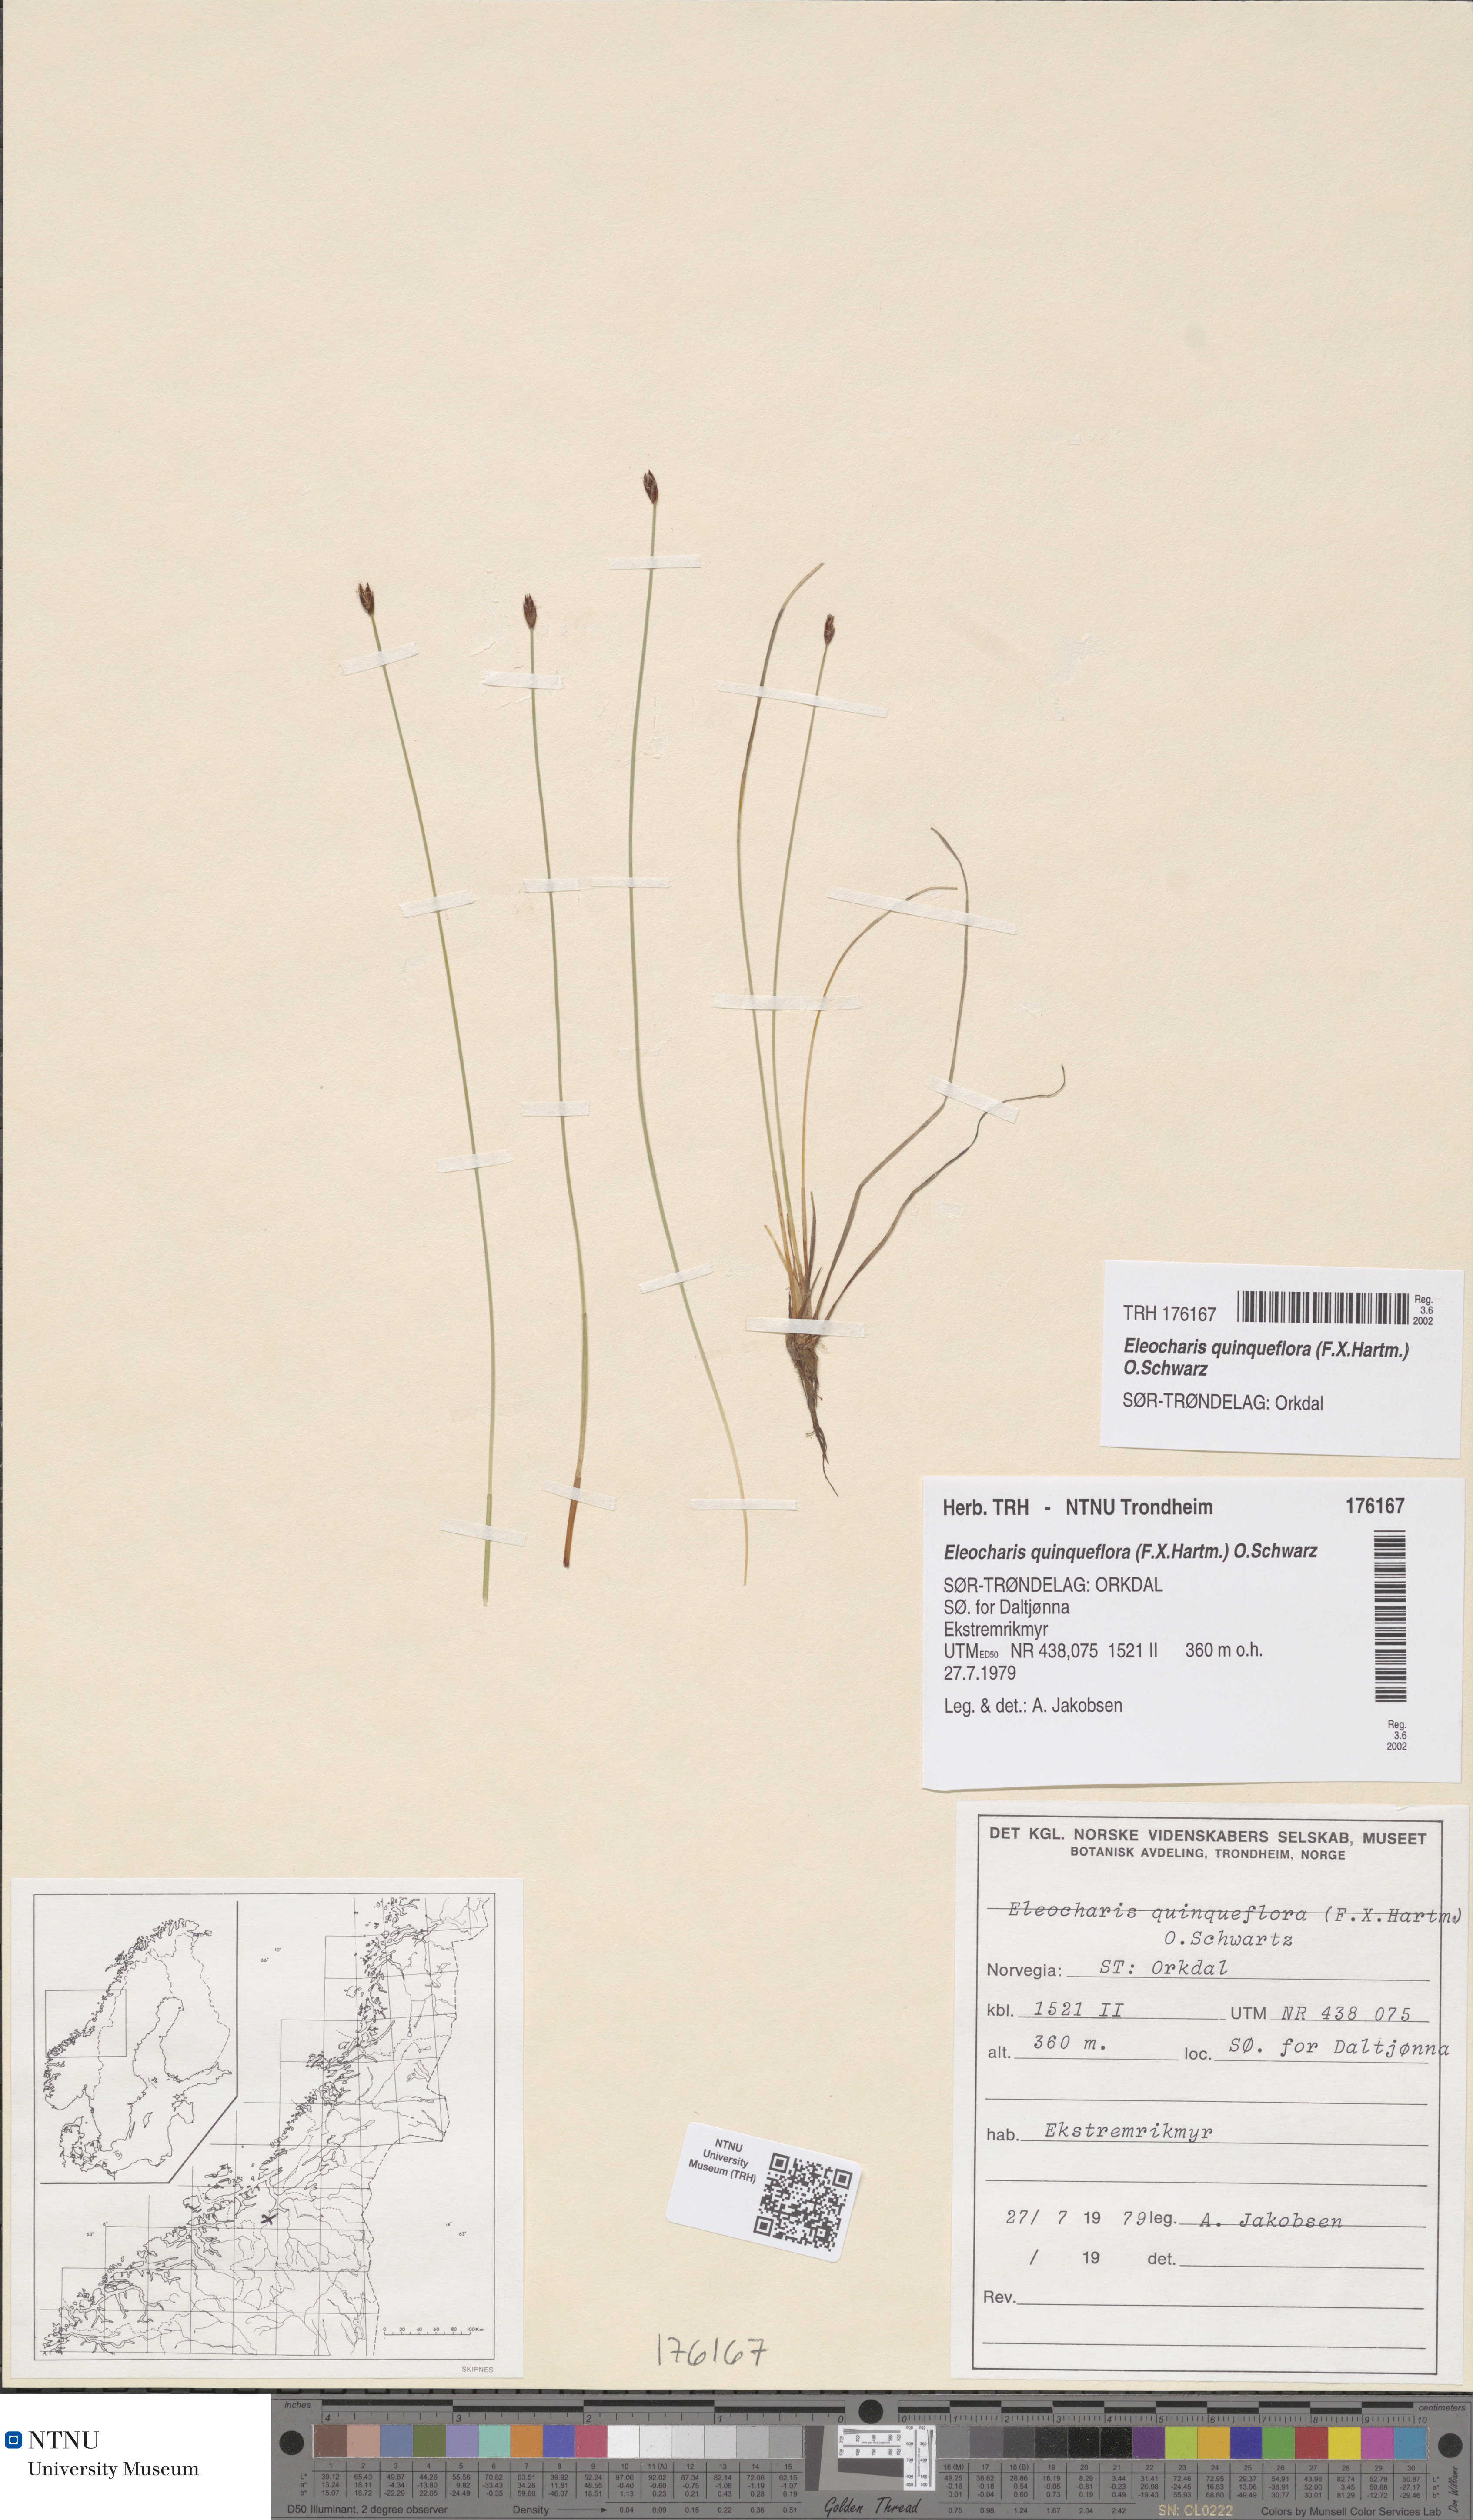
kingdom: Plantae
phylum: Tracheophyta
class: Liliopsida
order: Poales
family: Cyperaceae
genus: Eleocharis
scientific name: Eleocharis quinqueflora
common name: Few-flowered spike-rush
